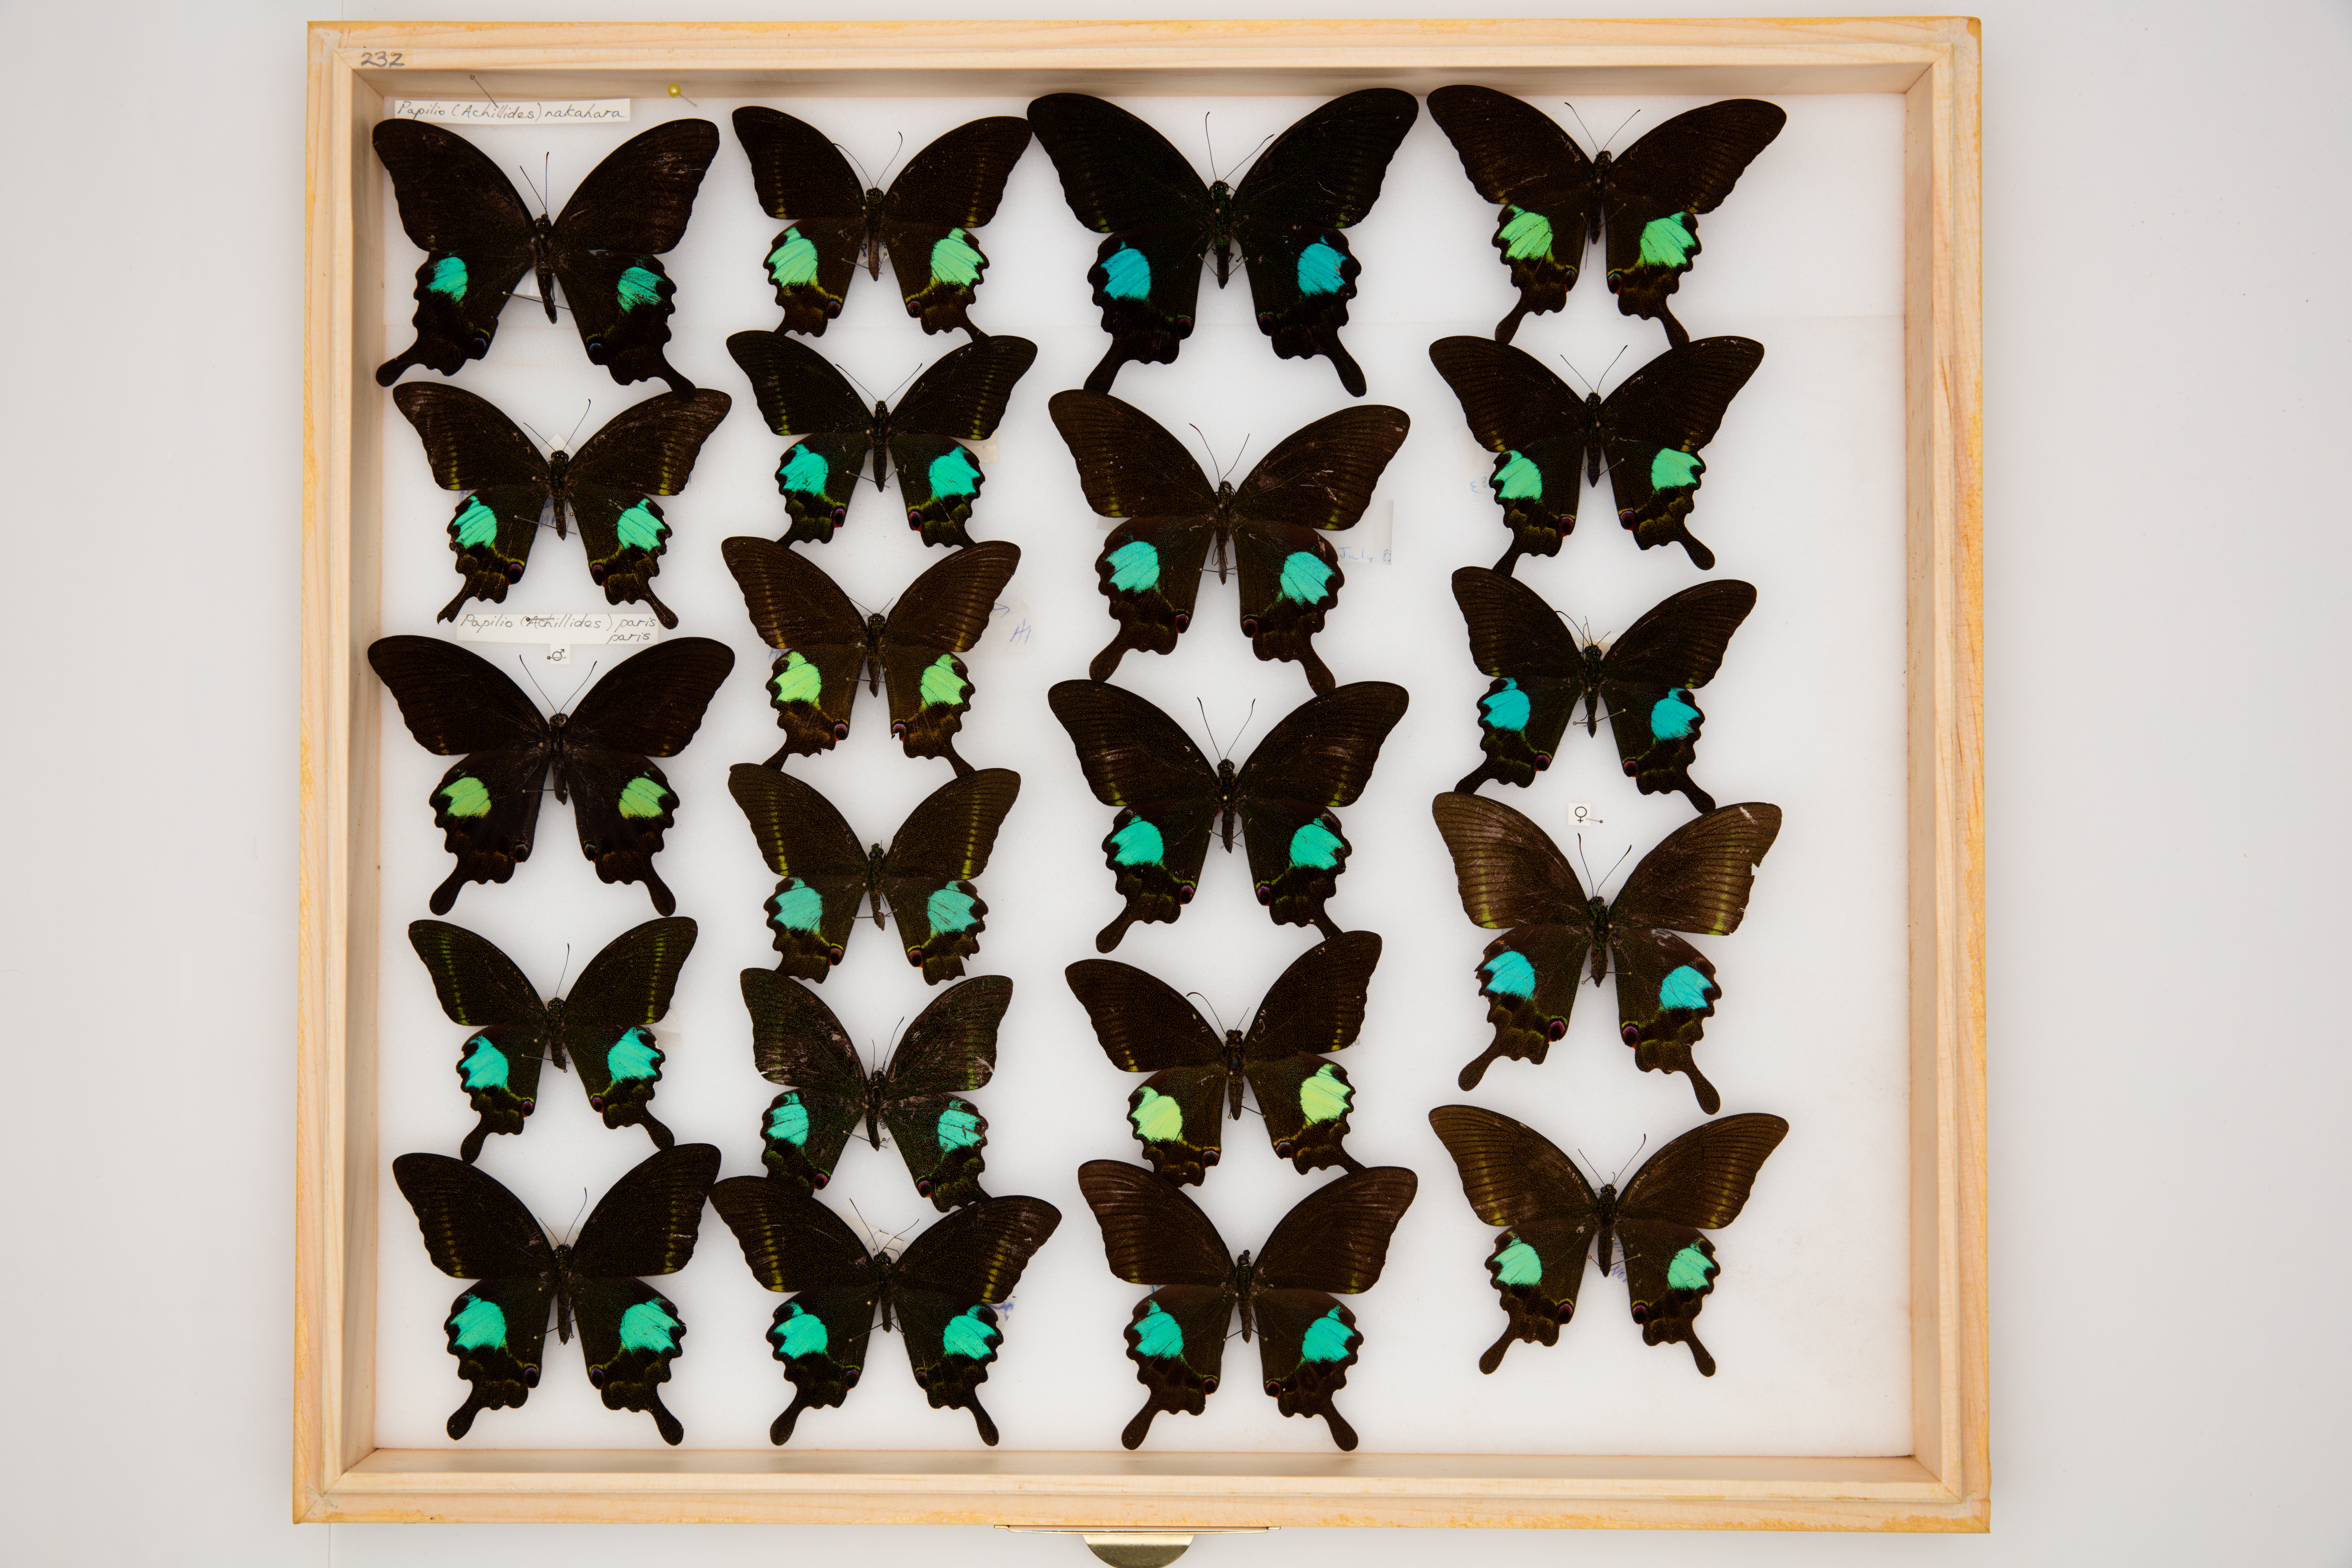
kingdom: Animalia
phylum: Arthropoda
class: Insecta
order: Lepidoptera
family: Papilionidae
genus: Papilio
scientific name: Papilio paris
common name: Paris peacock
